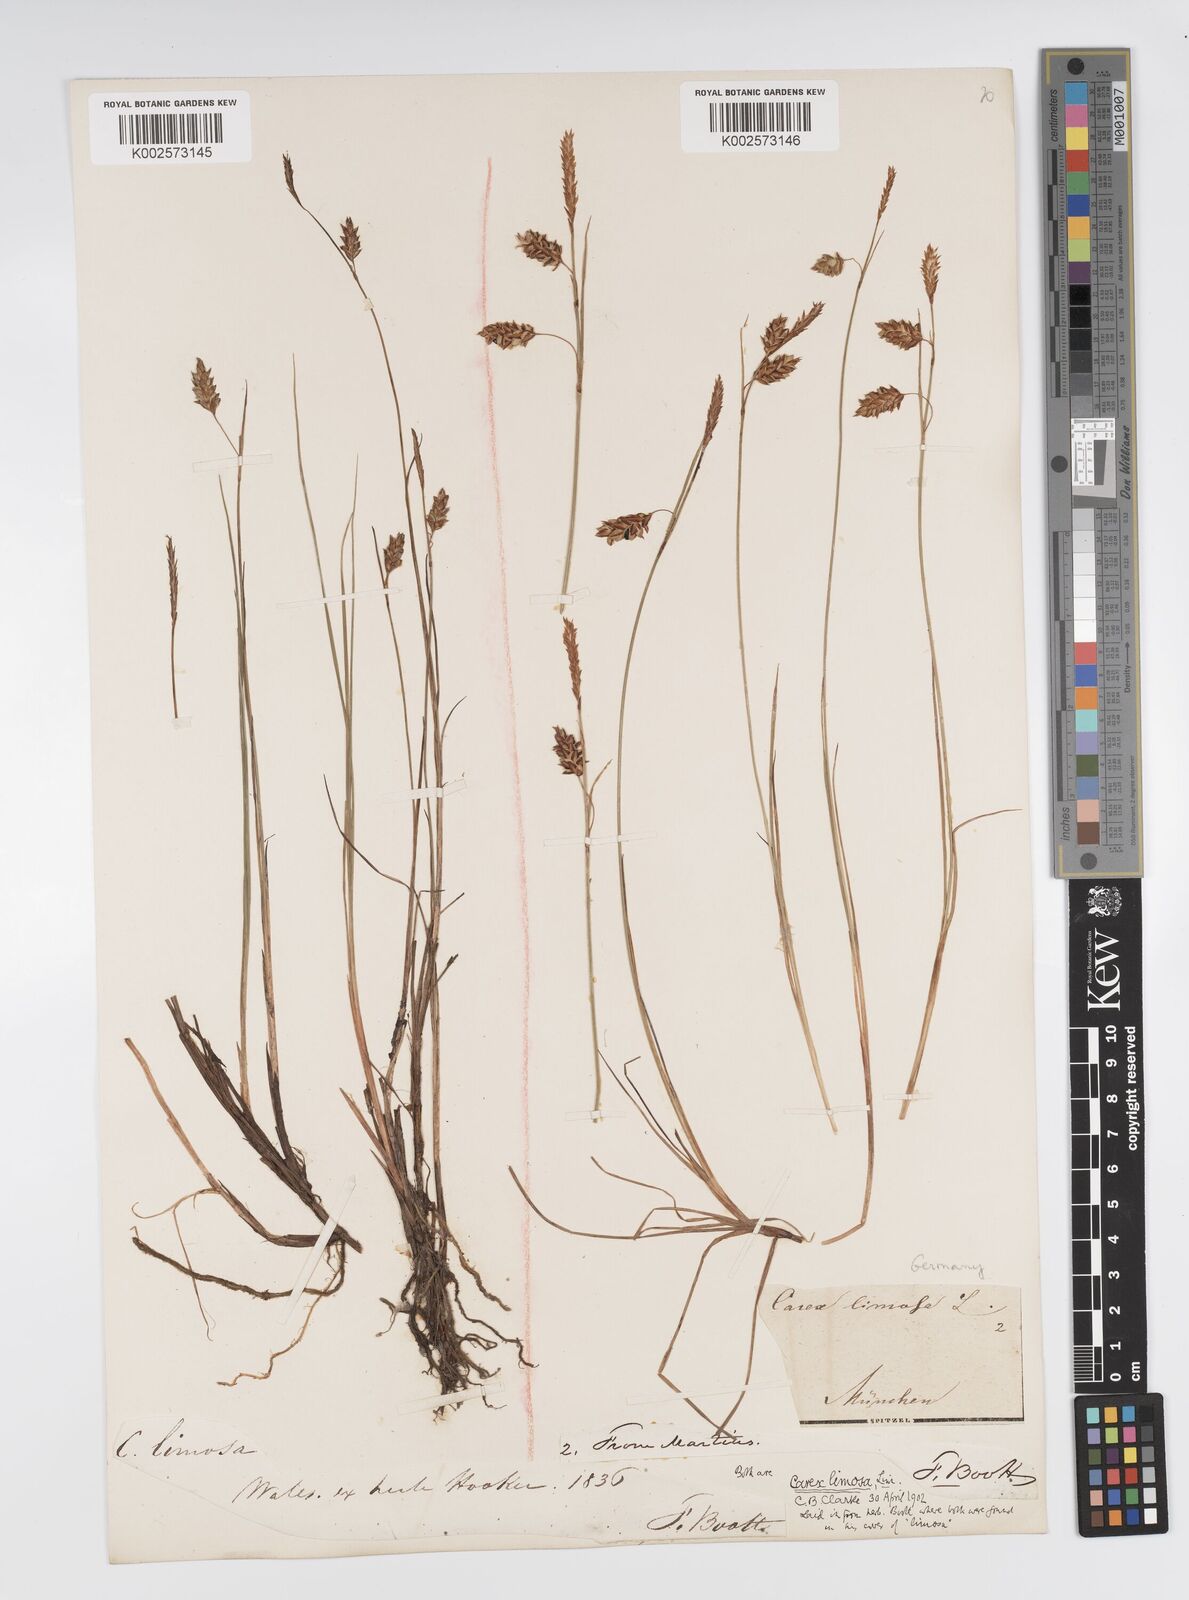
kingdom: Plantae
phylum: Tracheophyta
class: Liliopsida
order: Poales
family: Cyperaceae
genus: Carex
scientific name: Carex limosa
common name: Bog sedge
